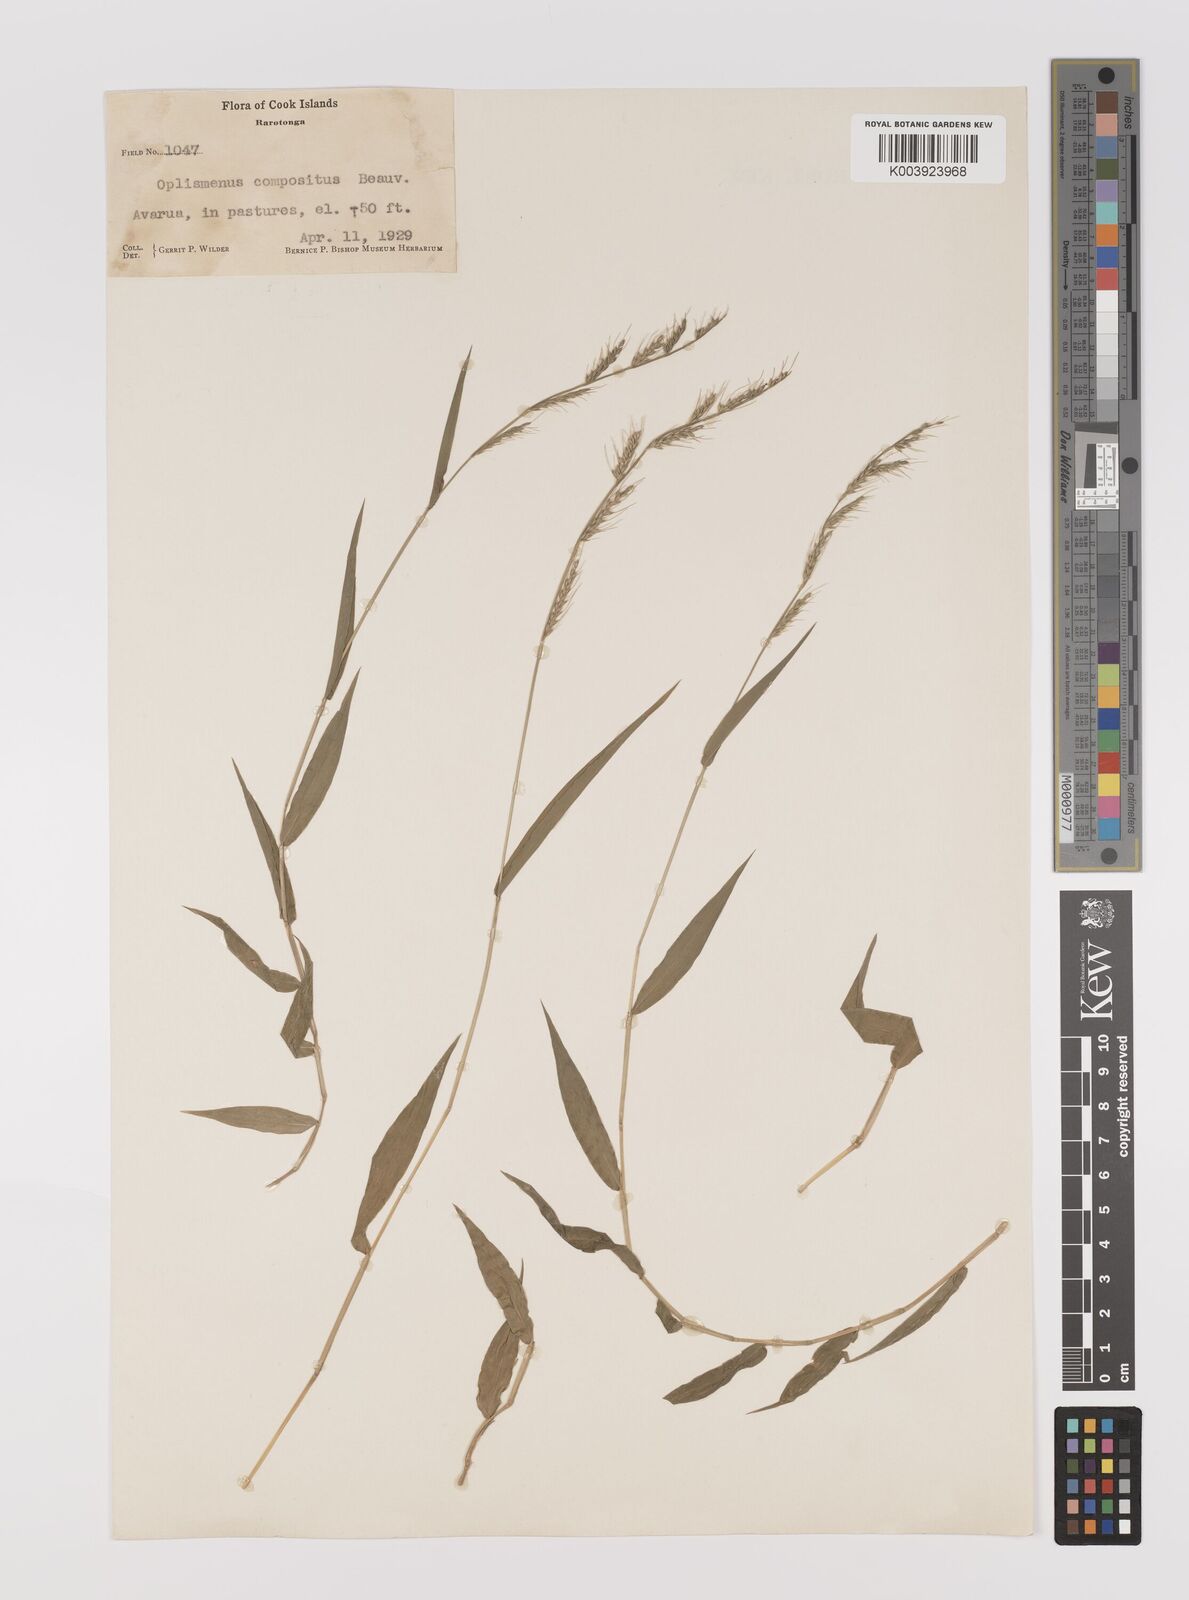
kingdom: Plantae
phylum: Tracheophyta
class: Liliopsida
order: Poales
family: Poaceae
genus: Oplismenus
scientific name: Oplismenus compositus
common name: Running mountain grass
